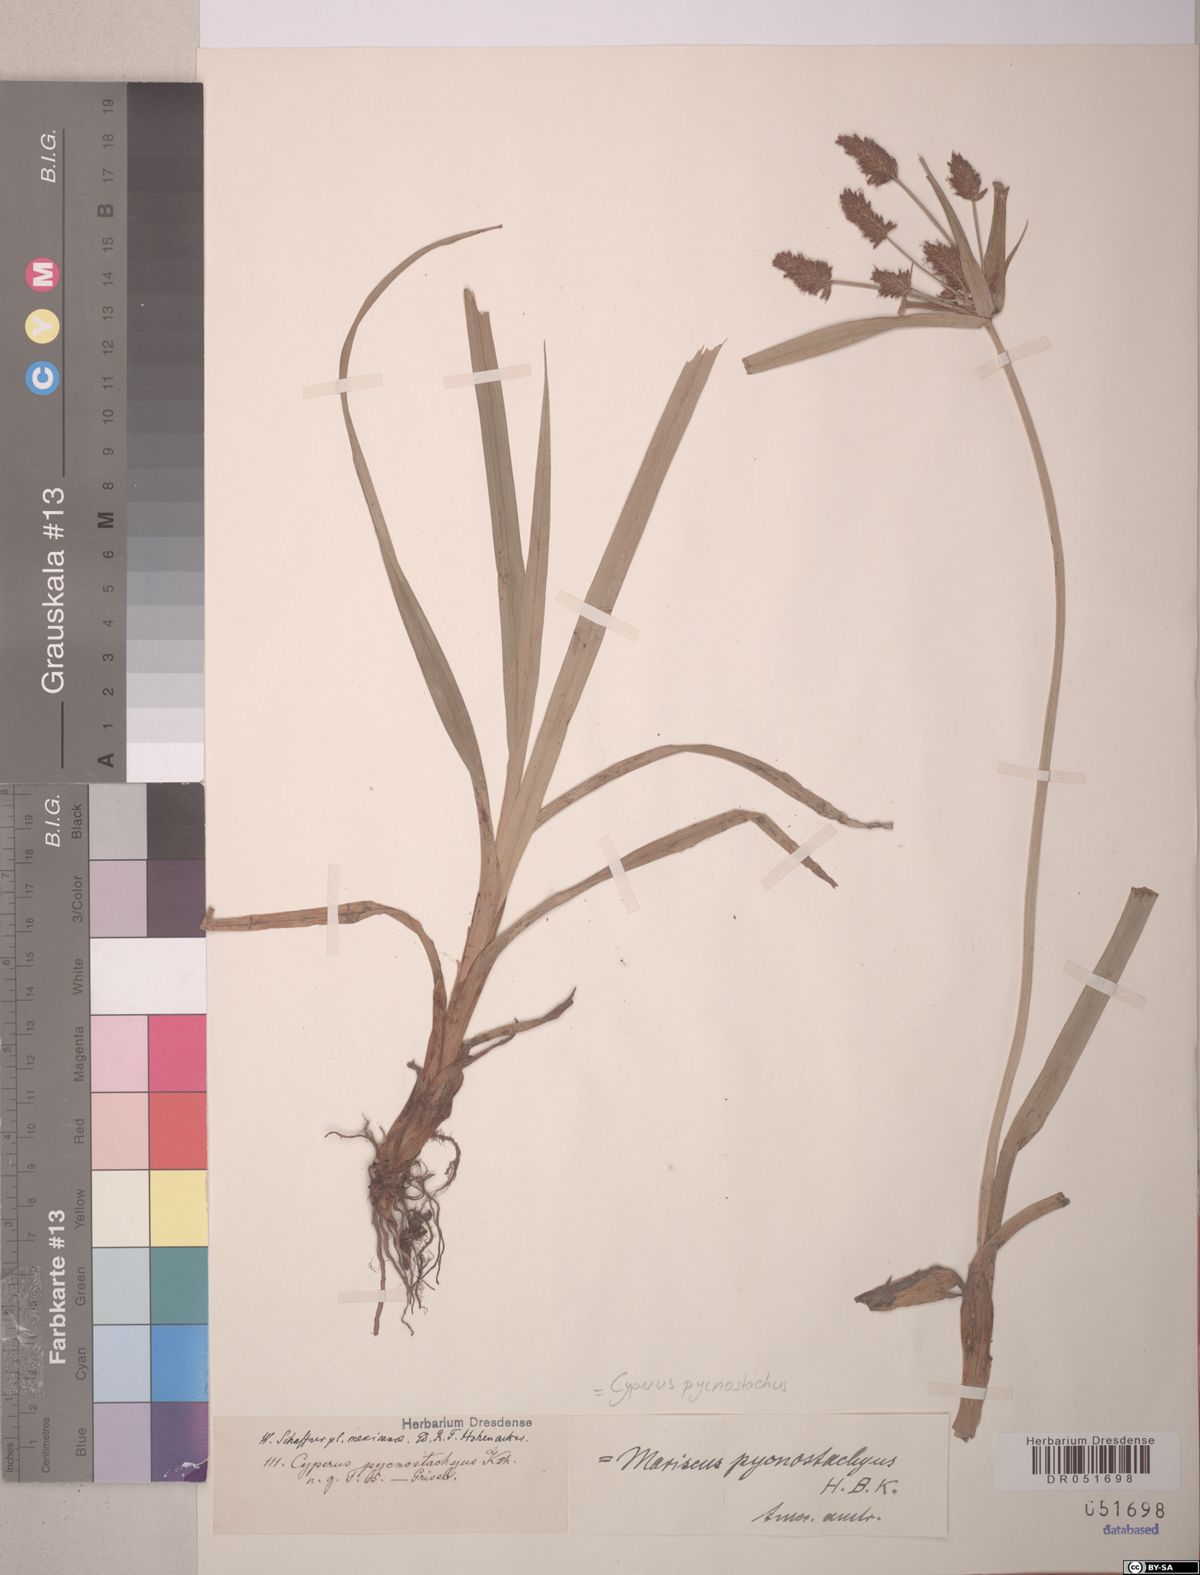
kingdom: Plantae
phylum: Tracheophyta
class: Liliopsida
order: Poales
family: Cyperaceae
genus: Cyperus
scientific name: Cyperus pycnostachyus
